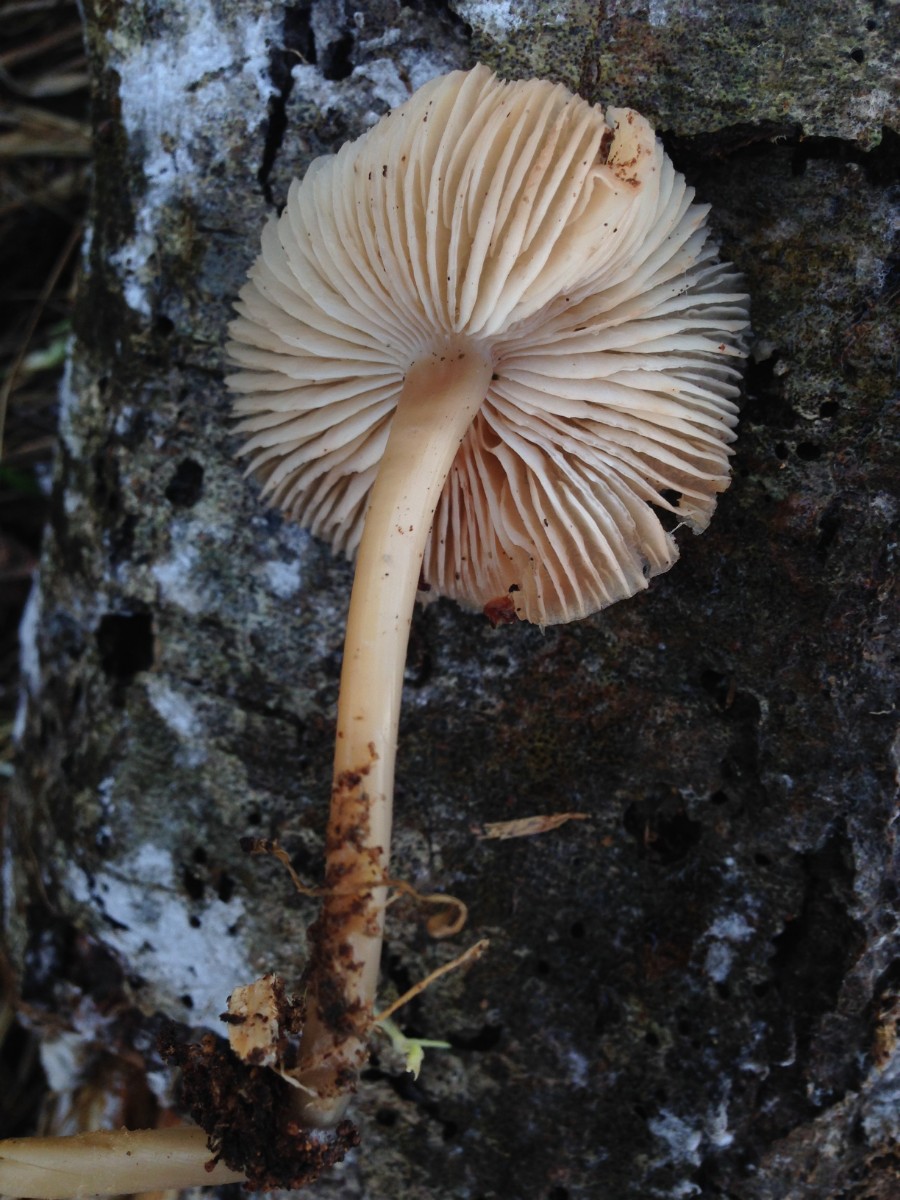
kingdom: Fungi
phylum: Basidiomycota
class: Agaricomycetes
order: Agaricales
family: Mycenaceae
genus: Mycena
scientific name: Mycena galericulata
